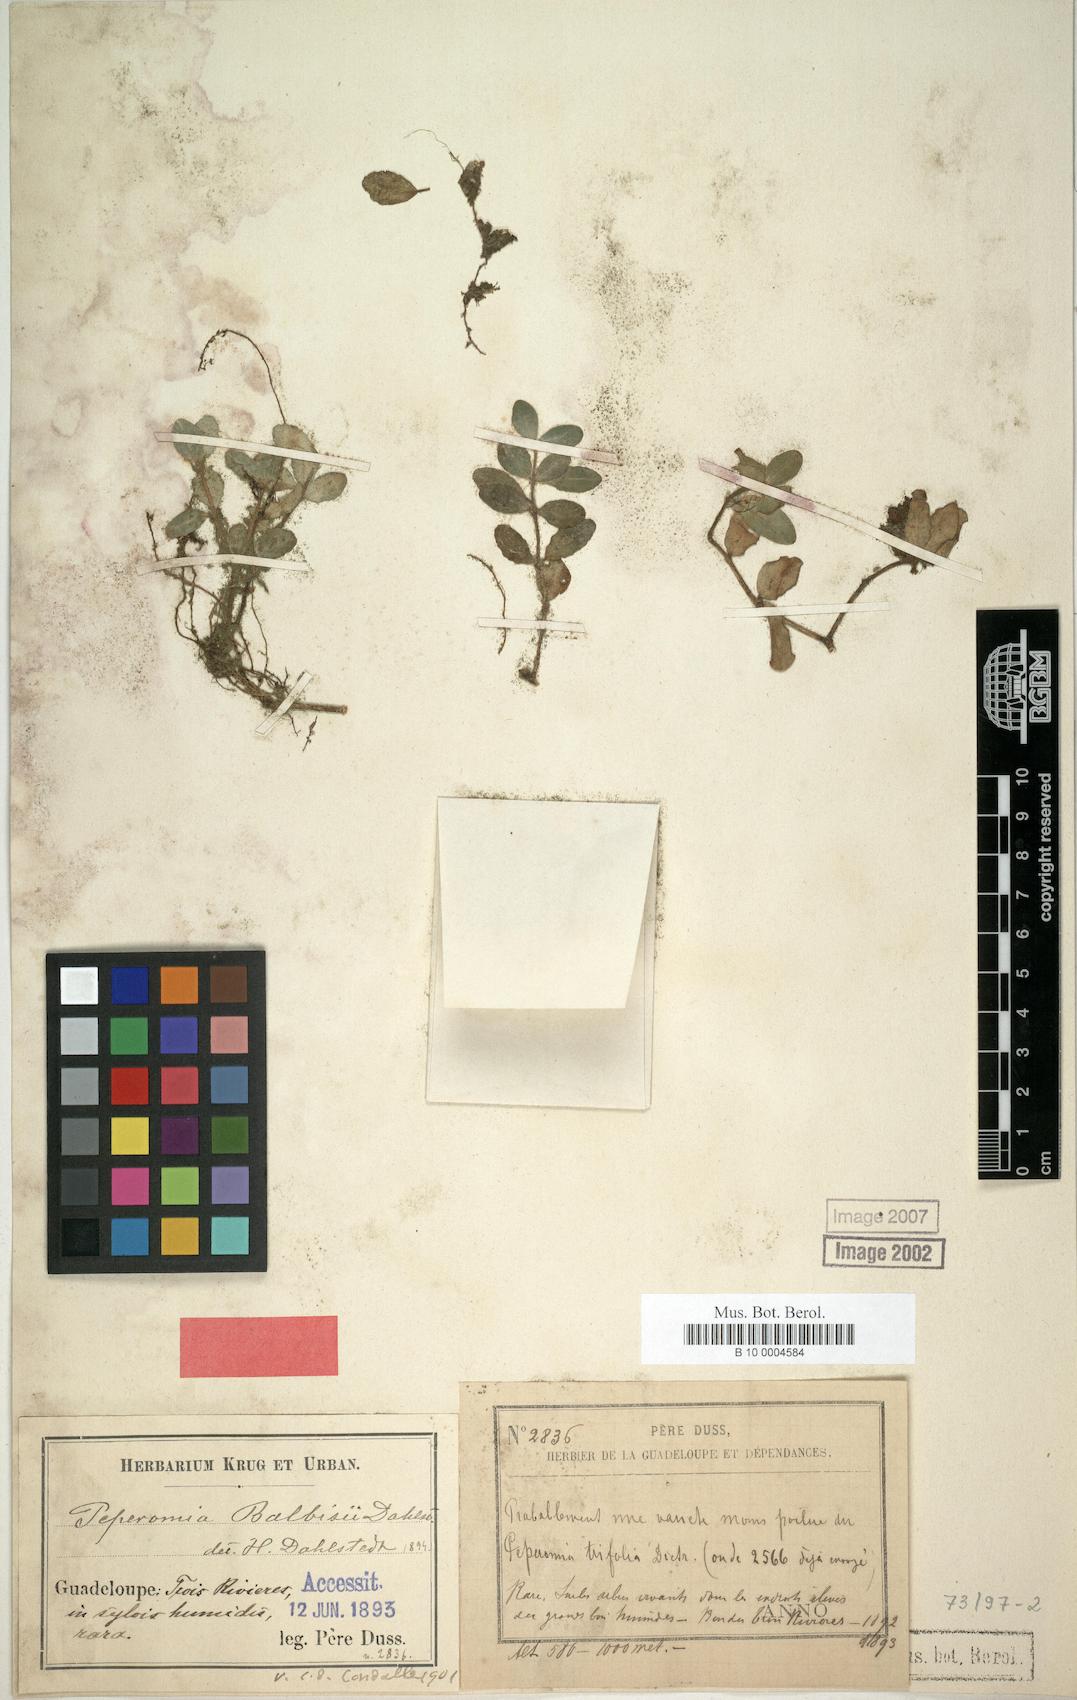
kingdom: Plantae
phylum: Tracheophyta
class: Magnoliopsida
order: Piperales
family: Piperaceae
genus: Peperomia
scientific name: Peperomia trifolia
